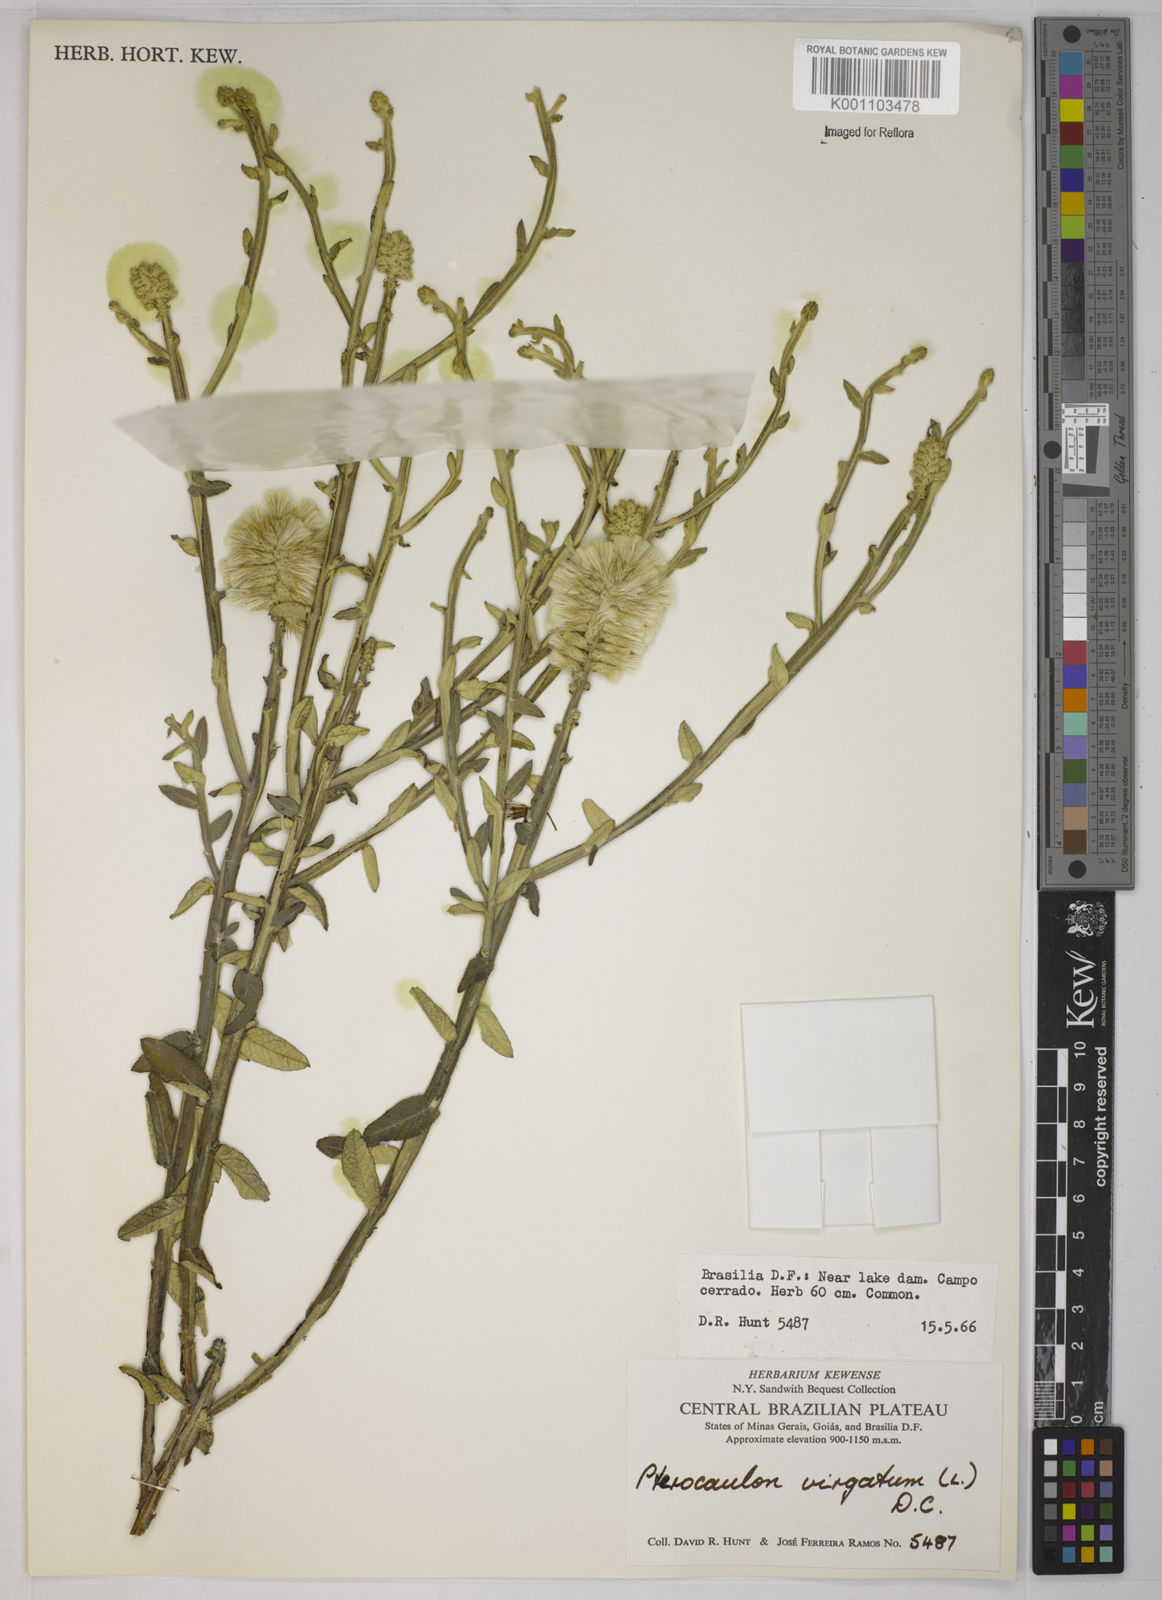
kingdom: Plantae
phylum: Tracheophyta
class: Magnoliopsida
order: Asterales
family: Asteraceae
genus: Pterocaulon
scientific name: Pterocaulon virgatum
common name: Wand blackroot
